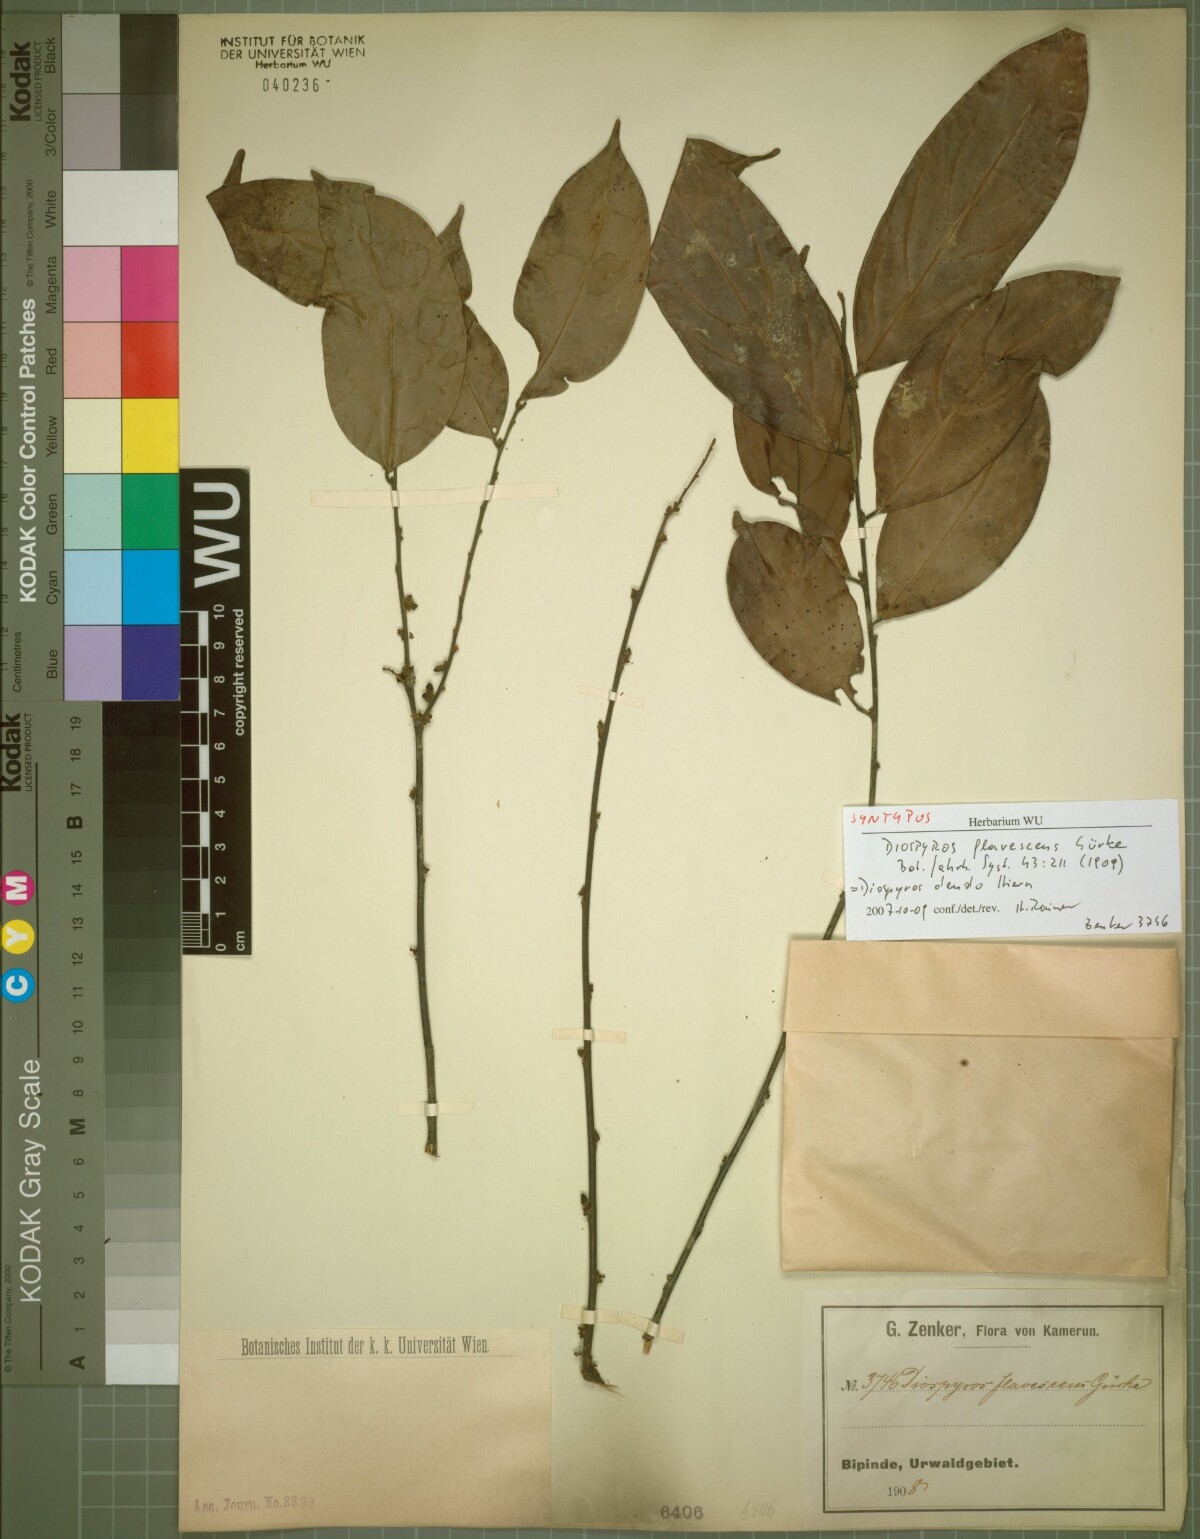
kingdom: Plantae
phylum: Tracheophyta
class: Magnoliopsida
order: Ericales
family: Ebenaceae
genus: Diospyros
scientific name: Diospyros dendo
